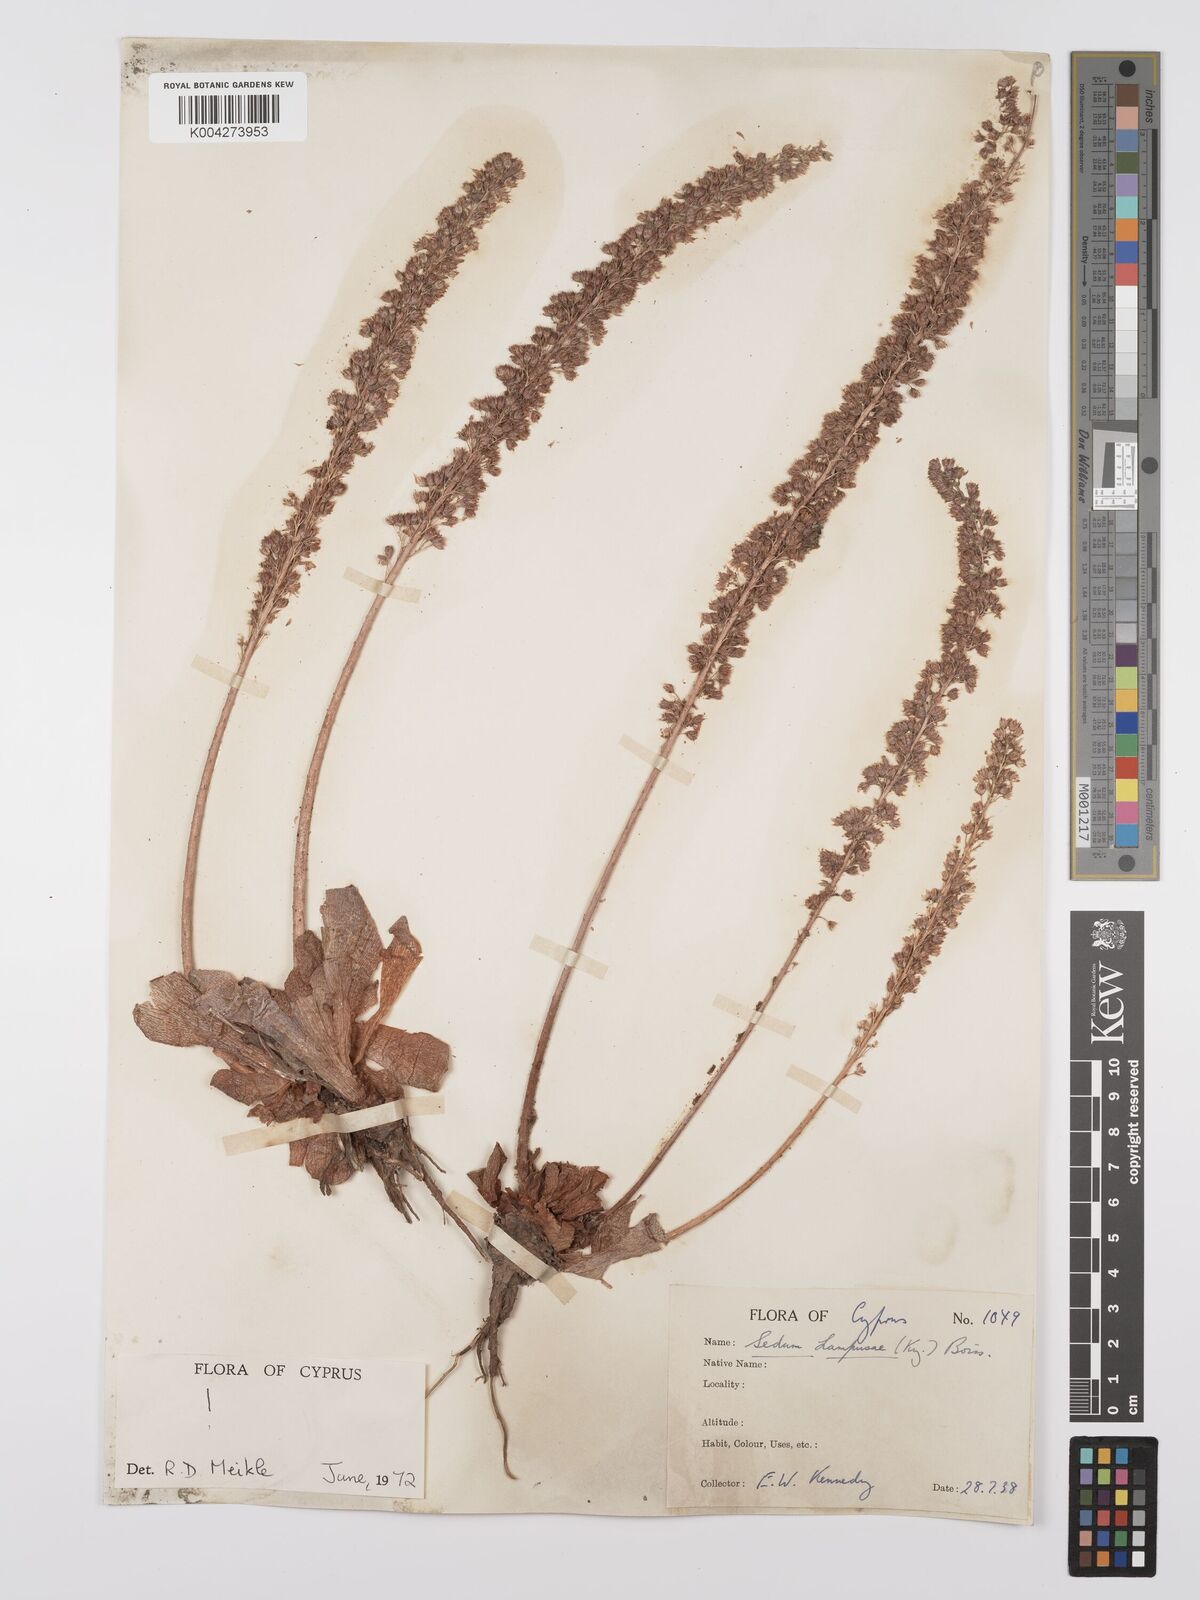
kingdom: Plantae
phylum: Tracheophyta
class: Magnoliopsida
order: Saxifragales
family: Crassulaceae
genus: Sedum
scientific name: Sedum lampusae
